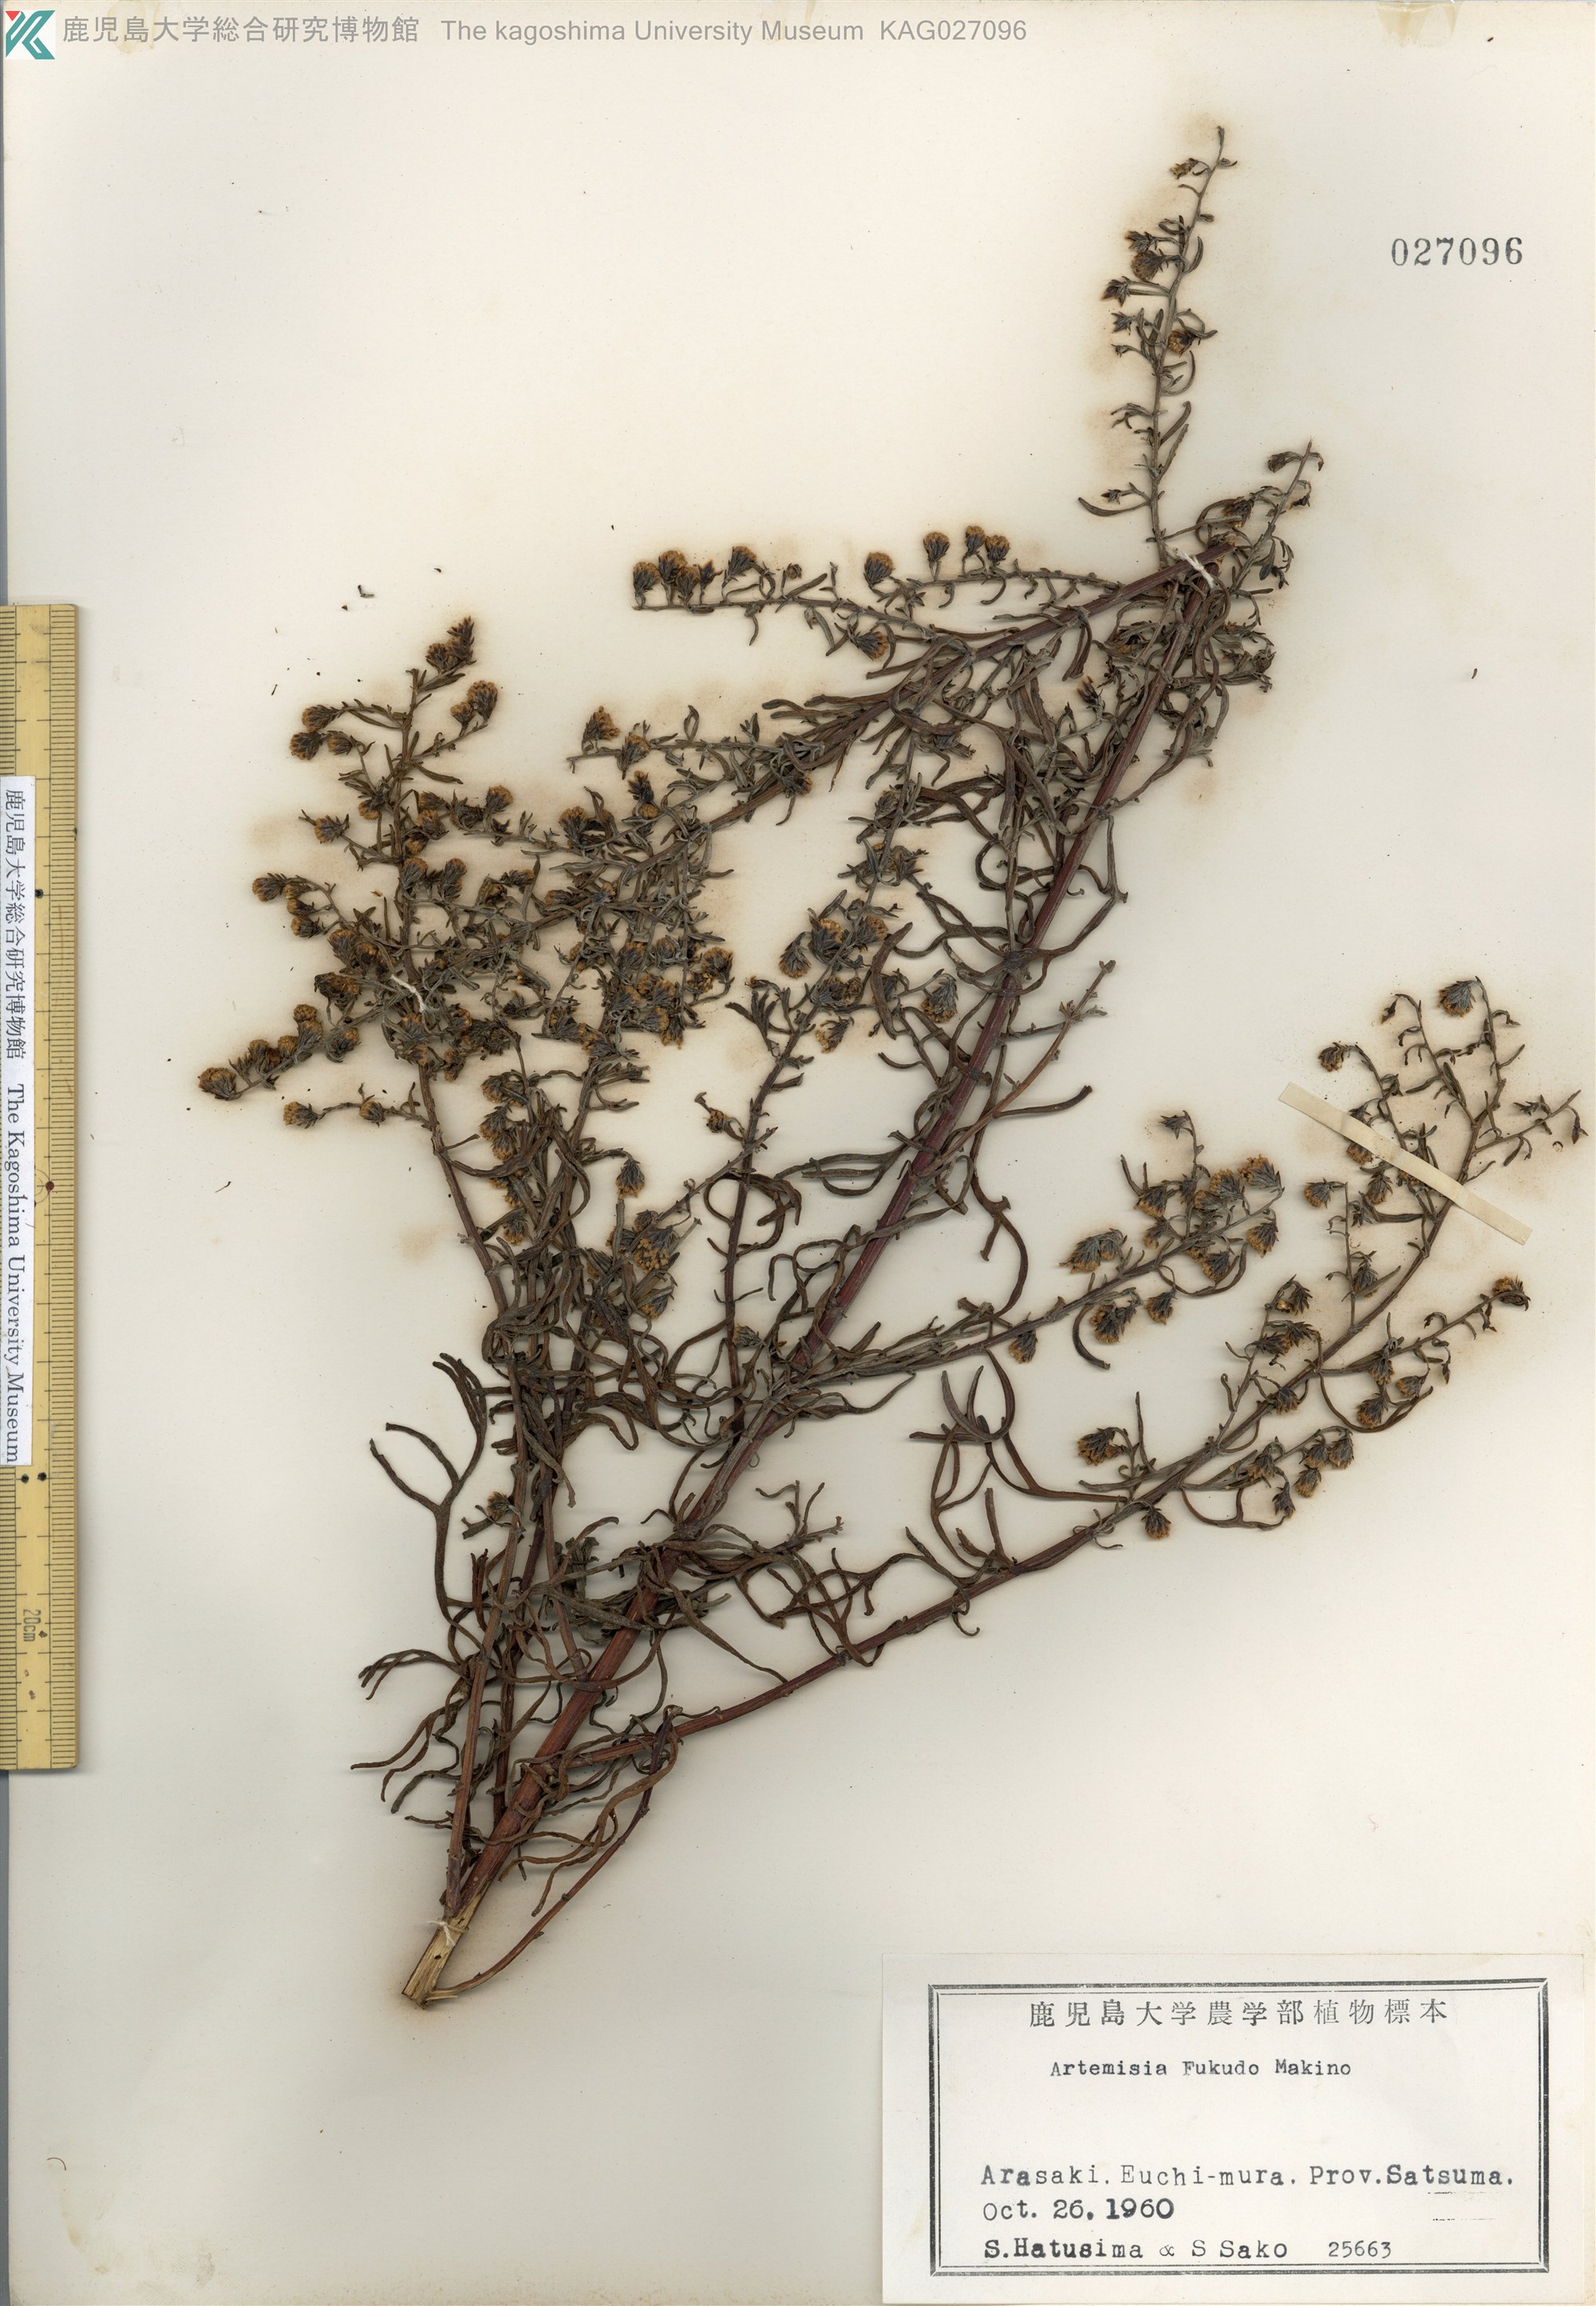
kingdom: Plantae
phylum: Tracheophyta
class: Magnoliopsida
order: Asterales
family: Asteraceae
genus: Artemisia
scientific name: Artemisia fukudo
